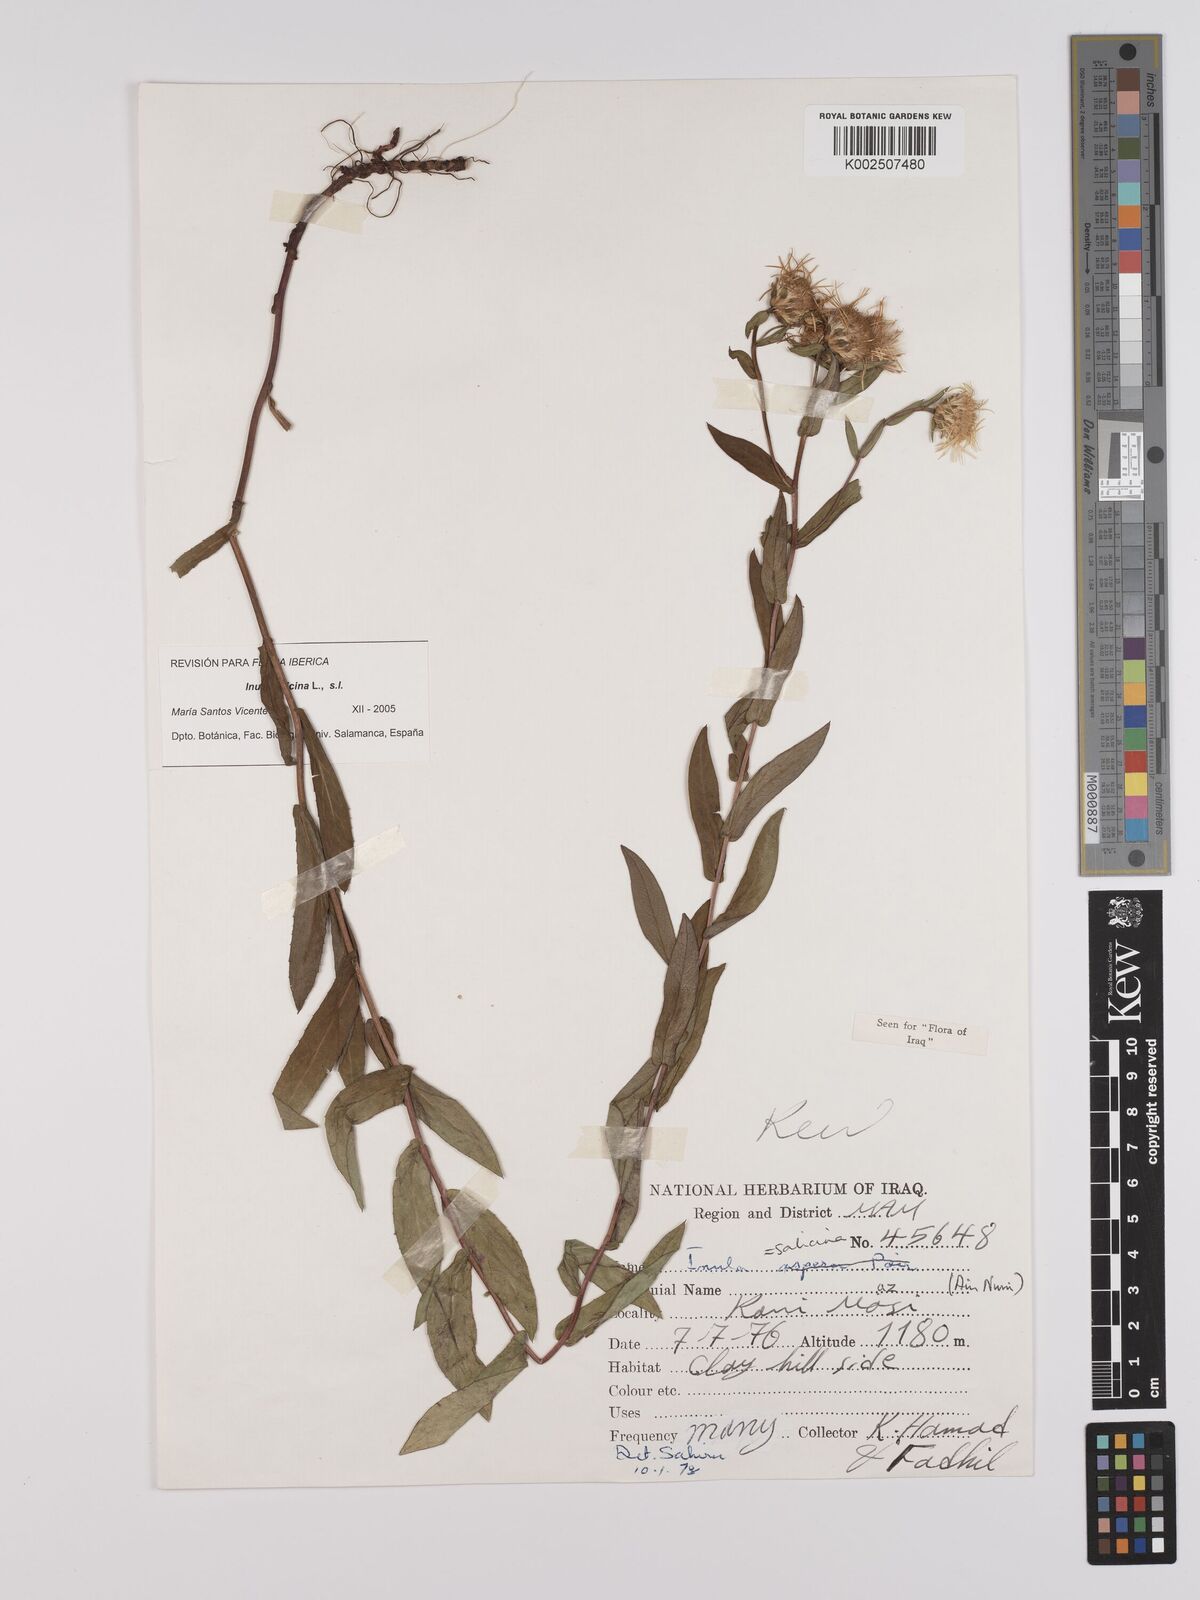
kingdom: Plantae
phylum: Tracheophyta
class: Magnoliopsida
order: Asterales
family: Asteraceae
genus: Pentanema
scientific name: Pentanema salicinum
